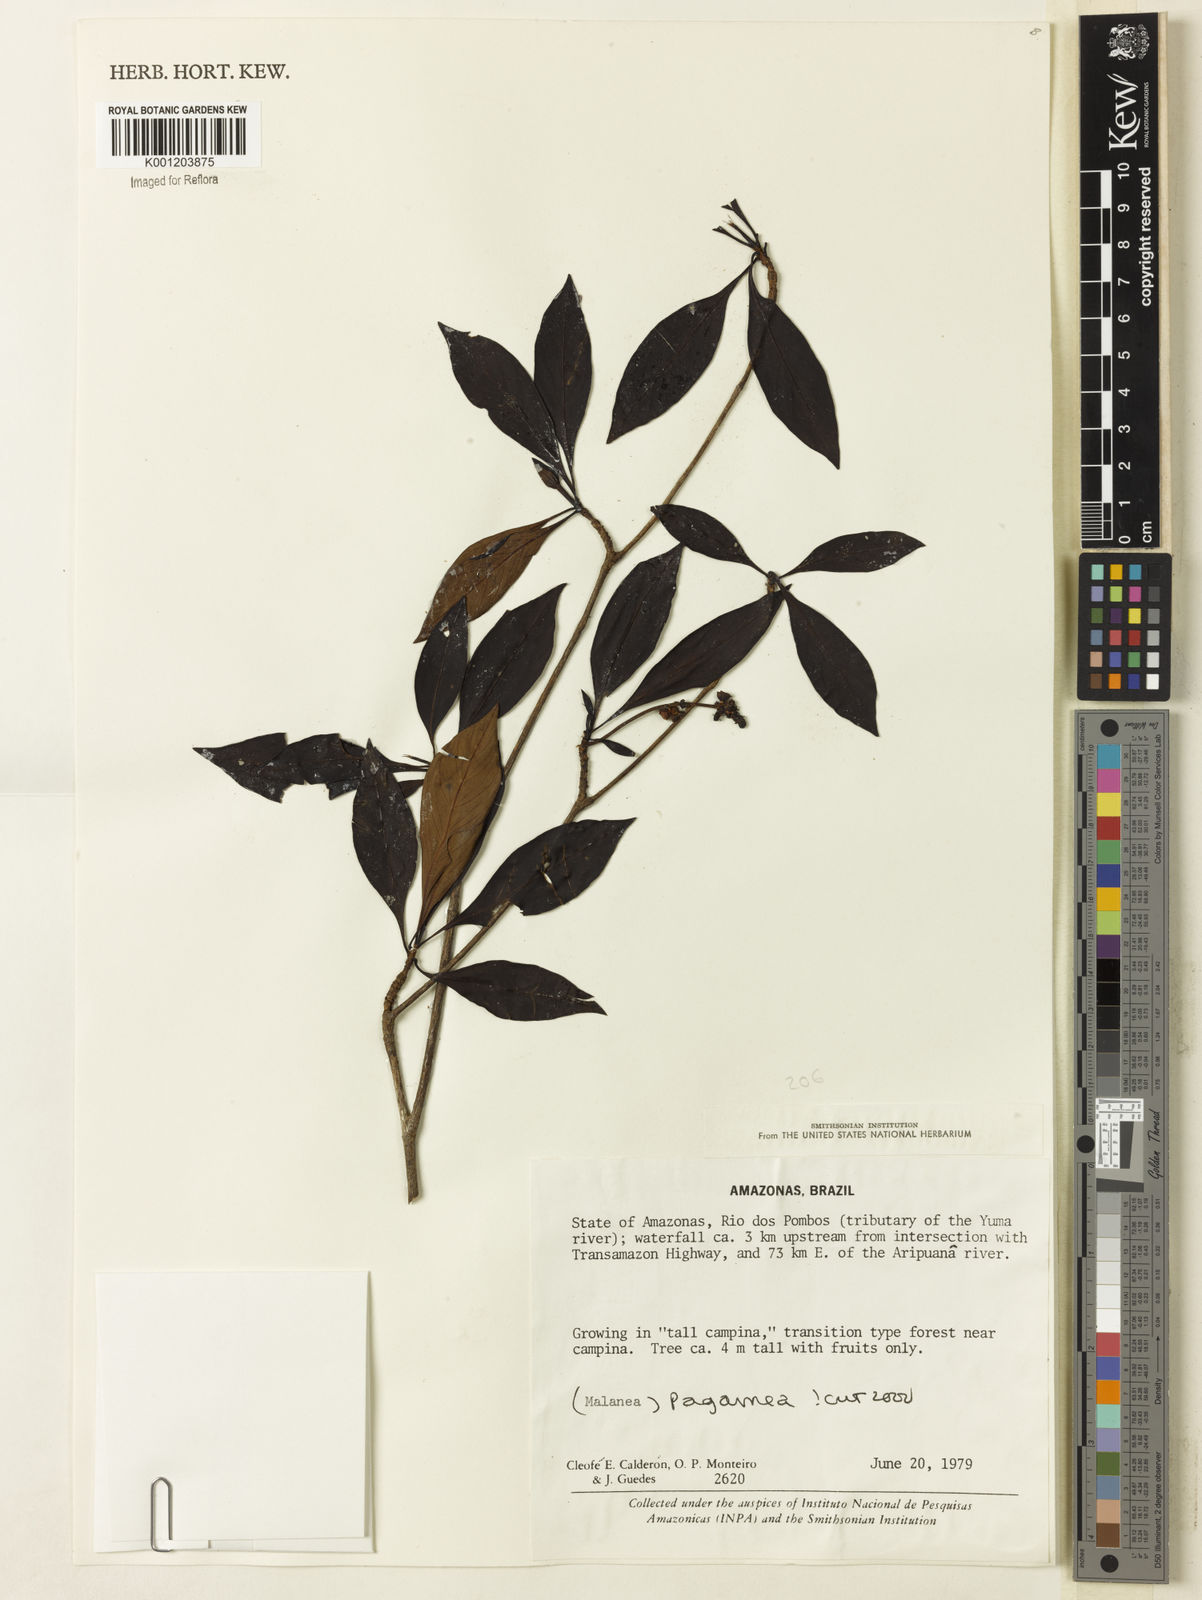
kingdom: Plantae
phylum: Tracheophyta
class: Magnoliopsida
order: Gentianales
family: Rubiaceae
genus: Pagamea
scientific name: Pagamea
